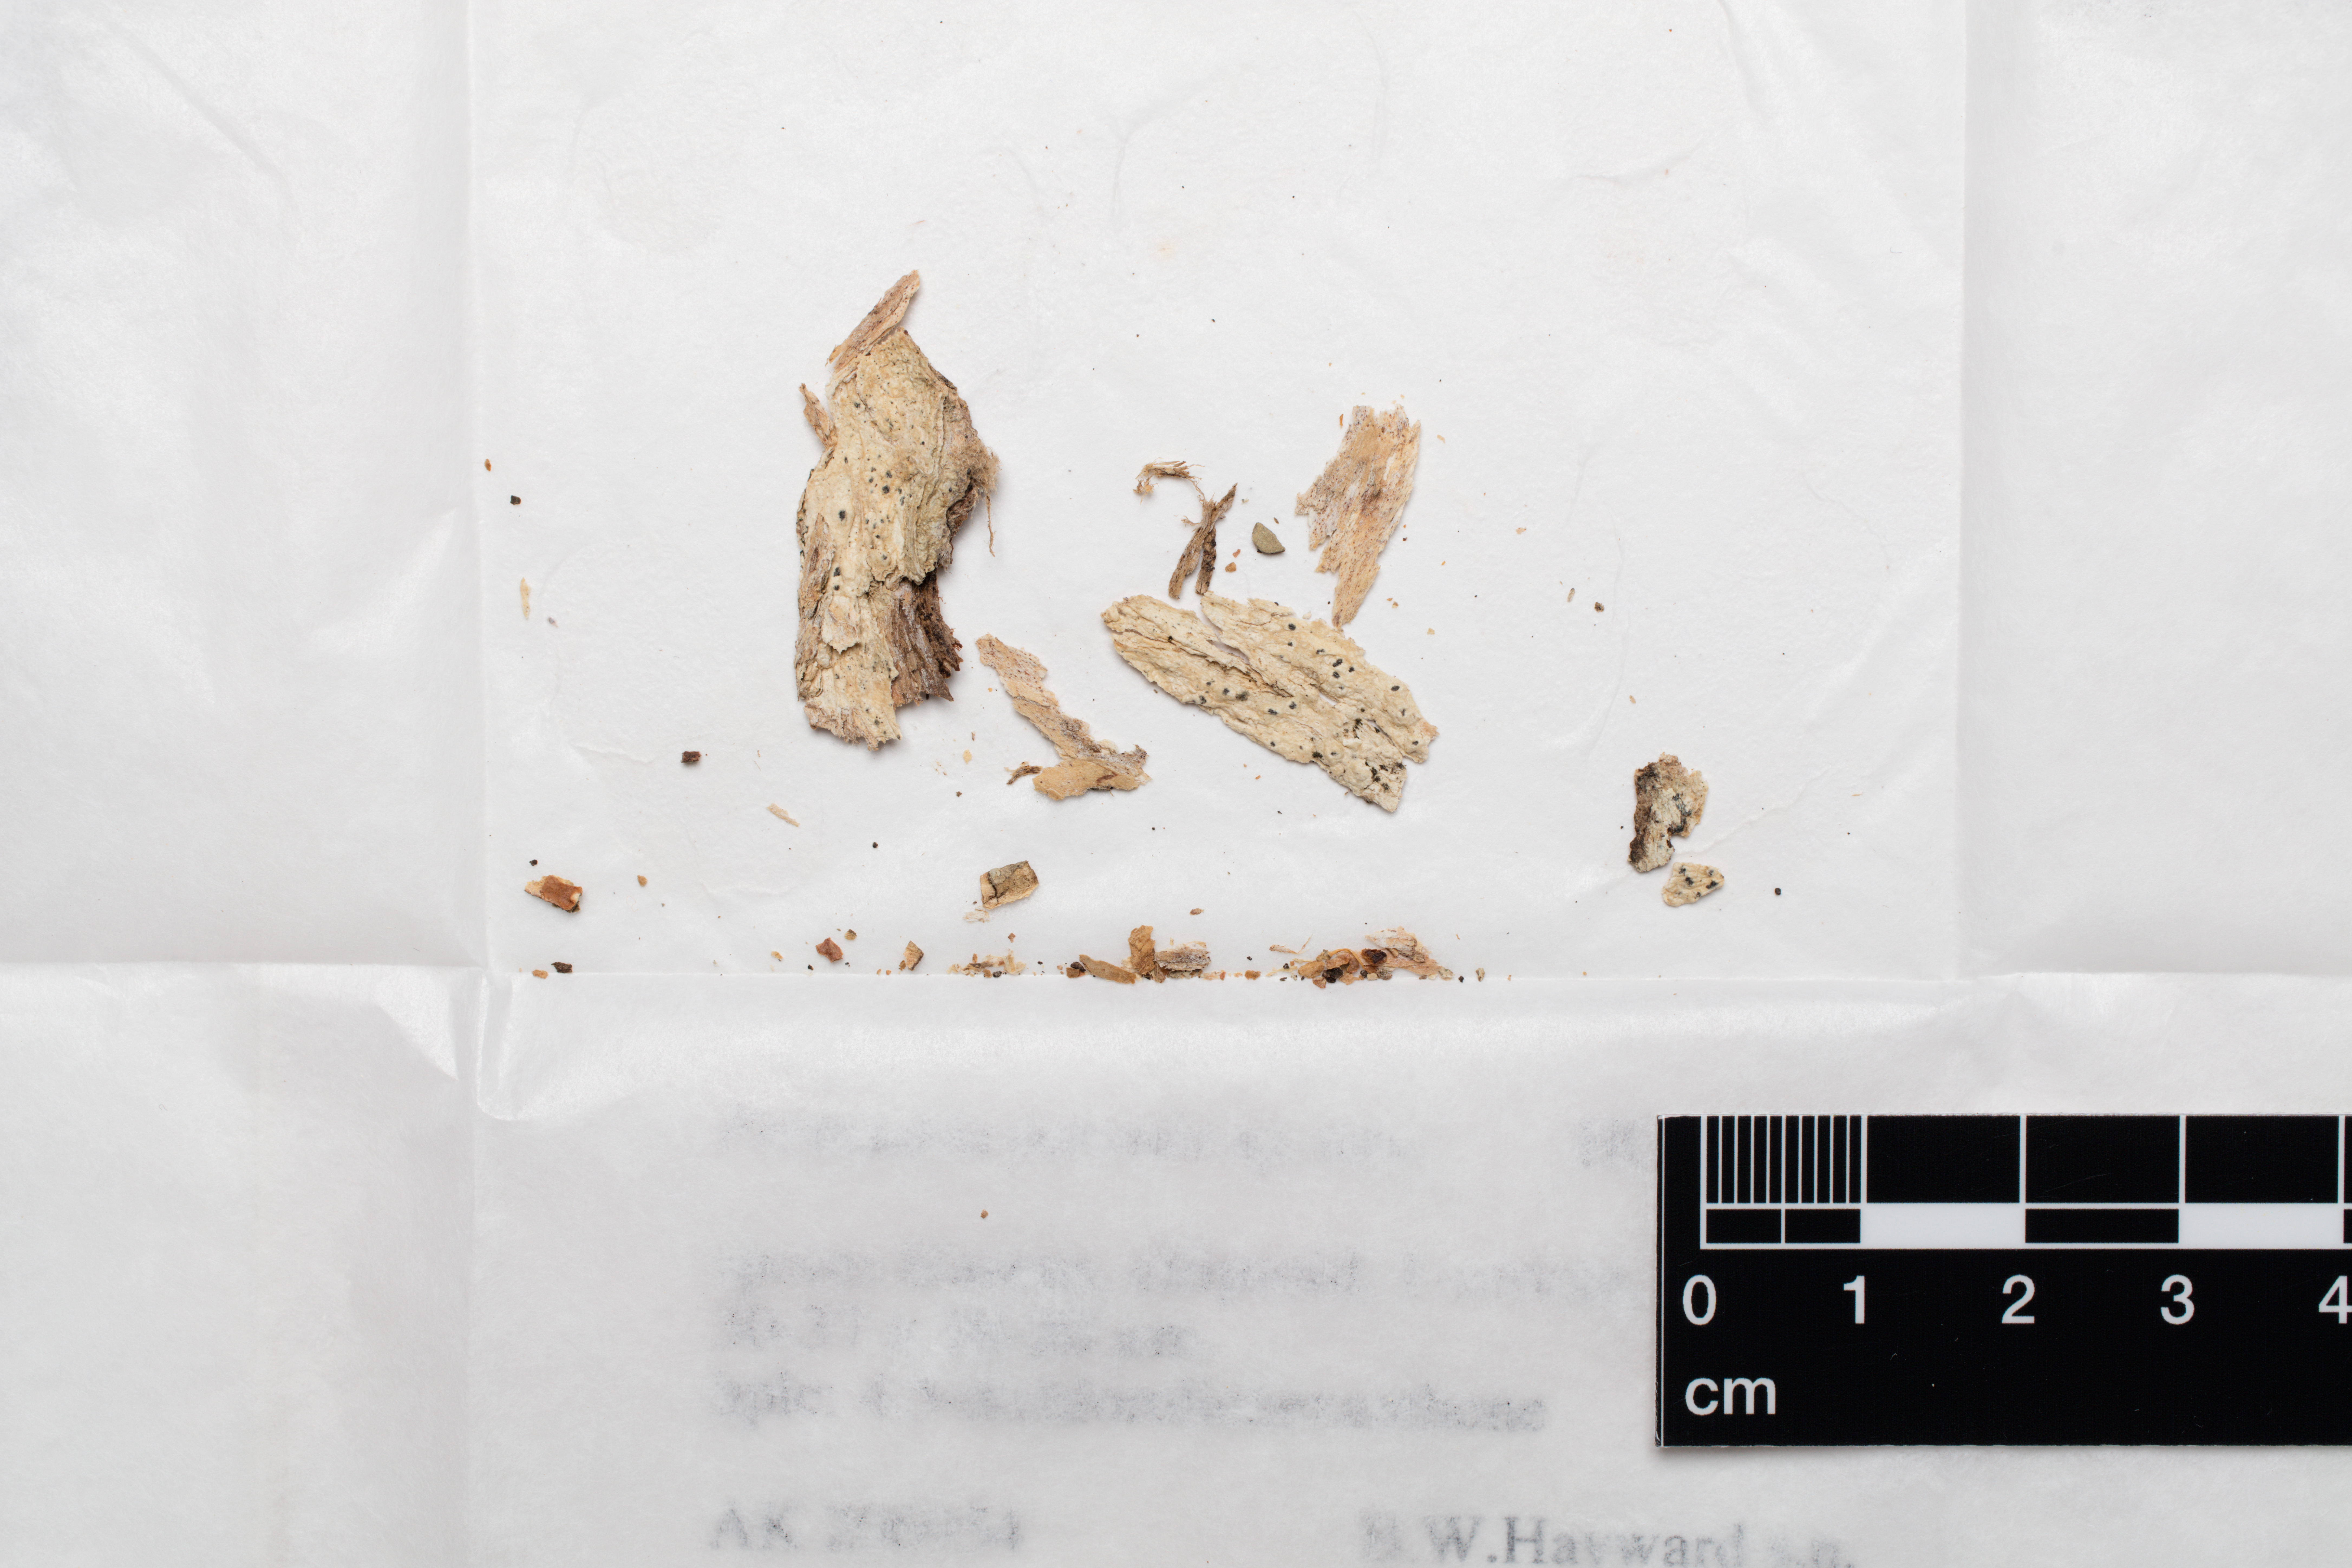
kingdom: Fungi
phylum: Ascomycota
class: Lecanoromycetes
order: Pertusariales
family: Pertusariaceae
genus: Pertusaria
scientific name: Pertusaria parvula
